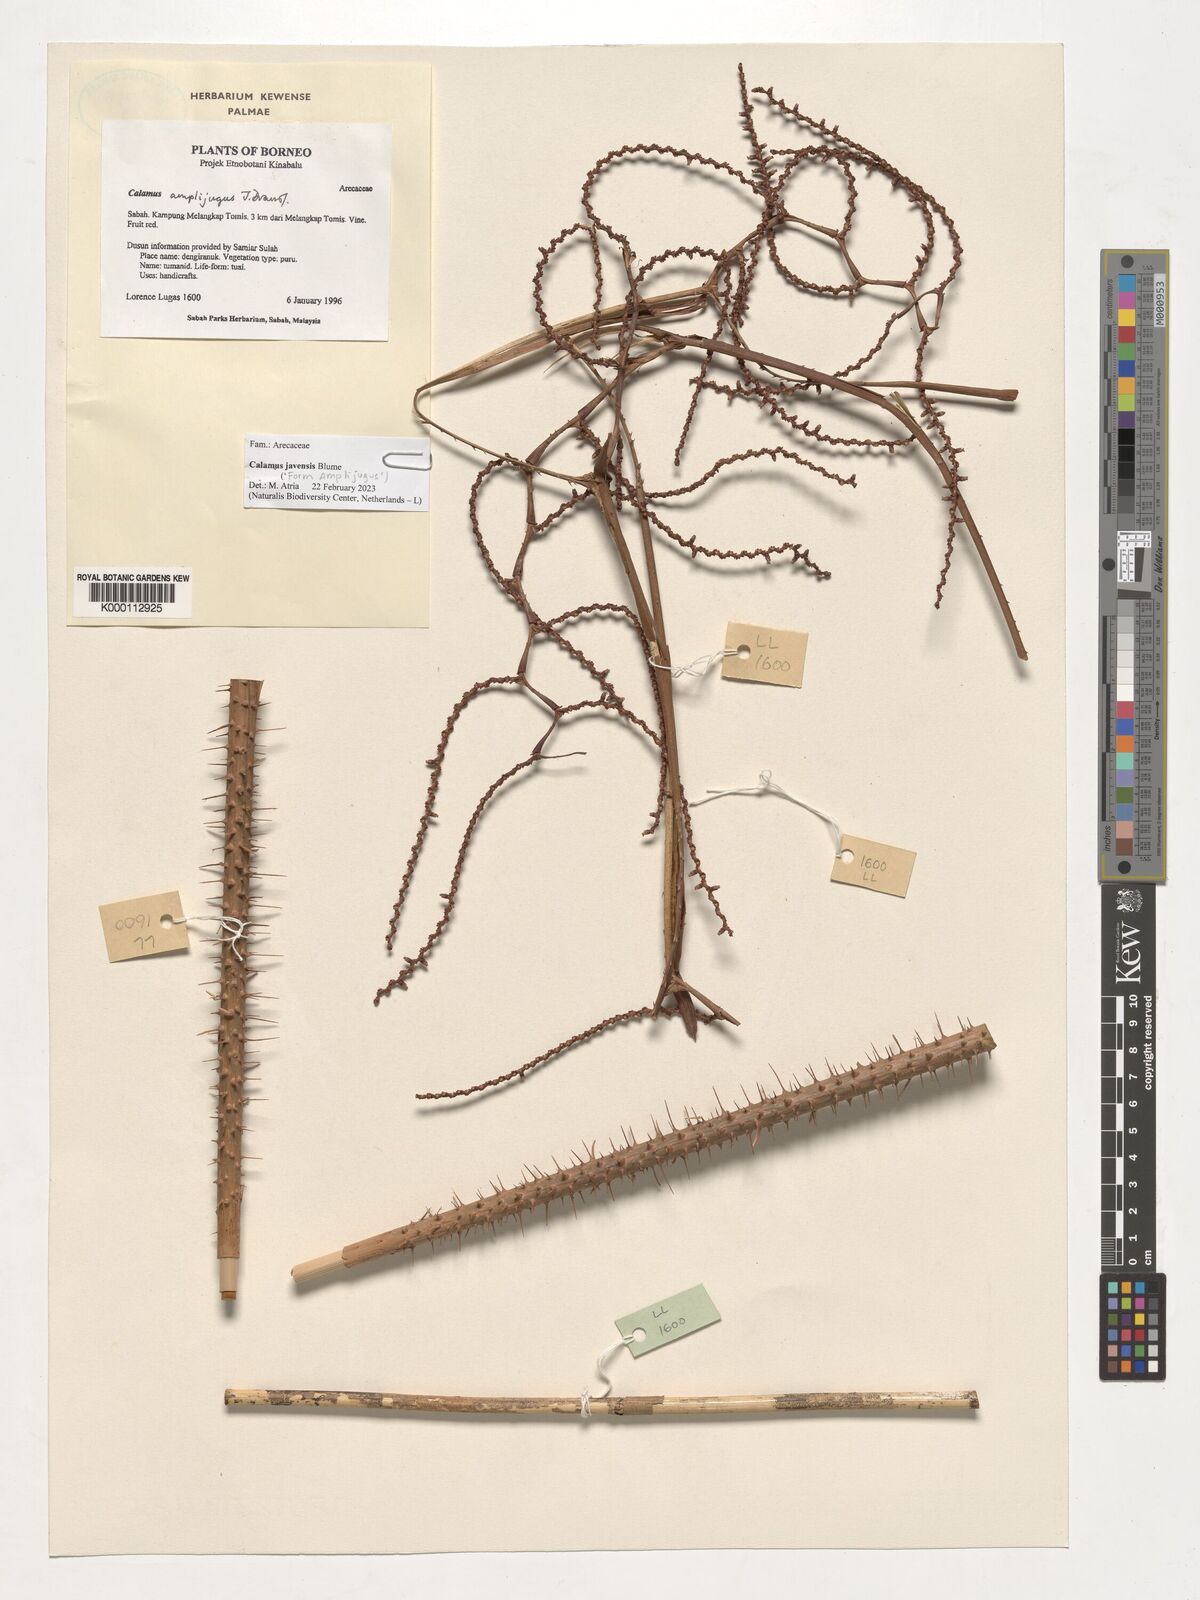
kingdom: Plantae
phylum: Tracheophyta
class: Liliopsida
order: Arecales
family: Arecaceae
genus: Calamus
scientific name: Calamus javensis
